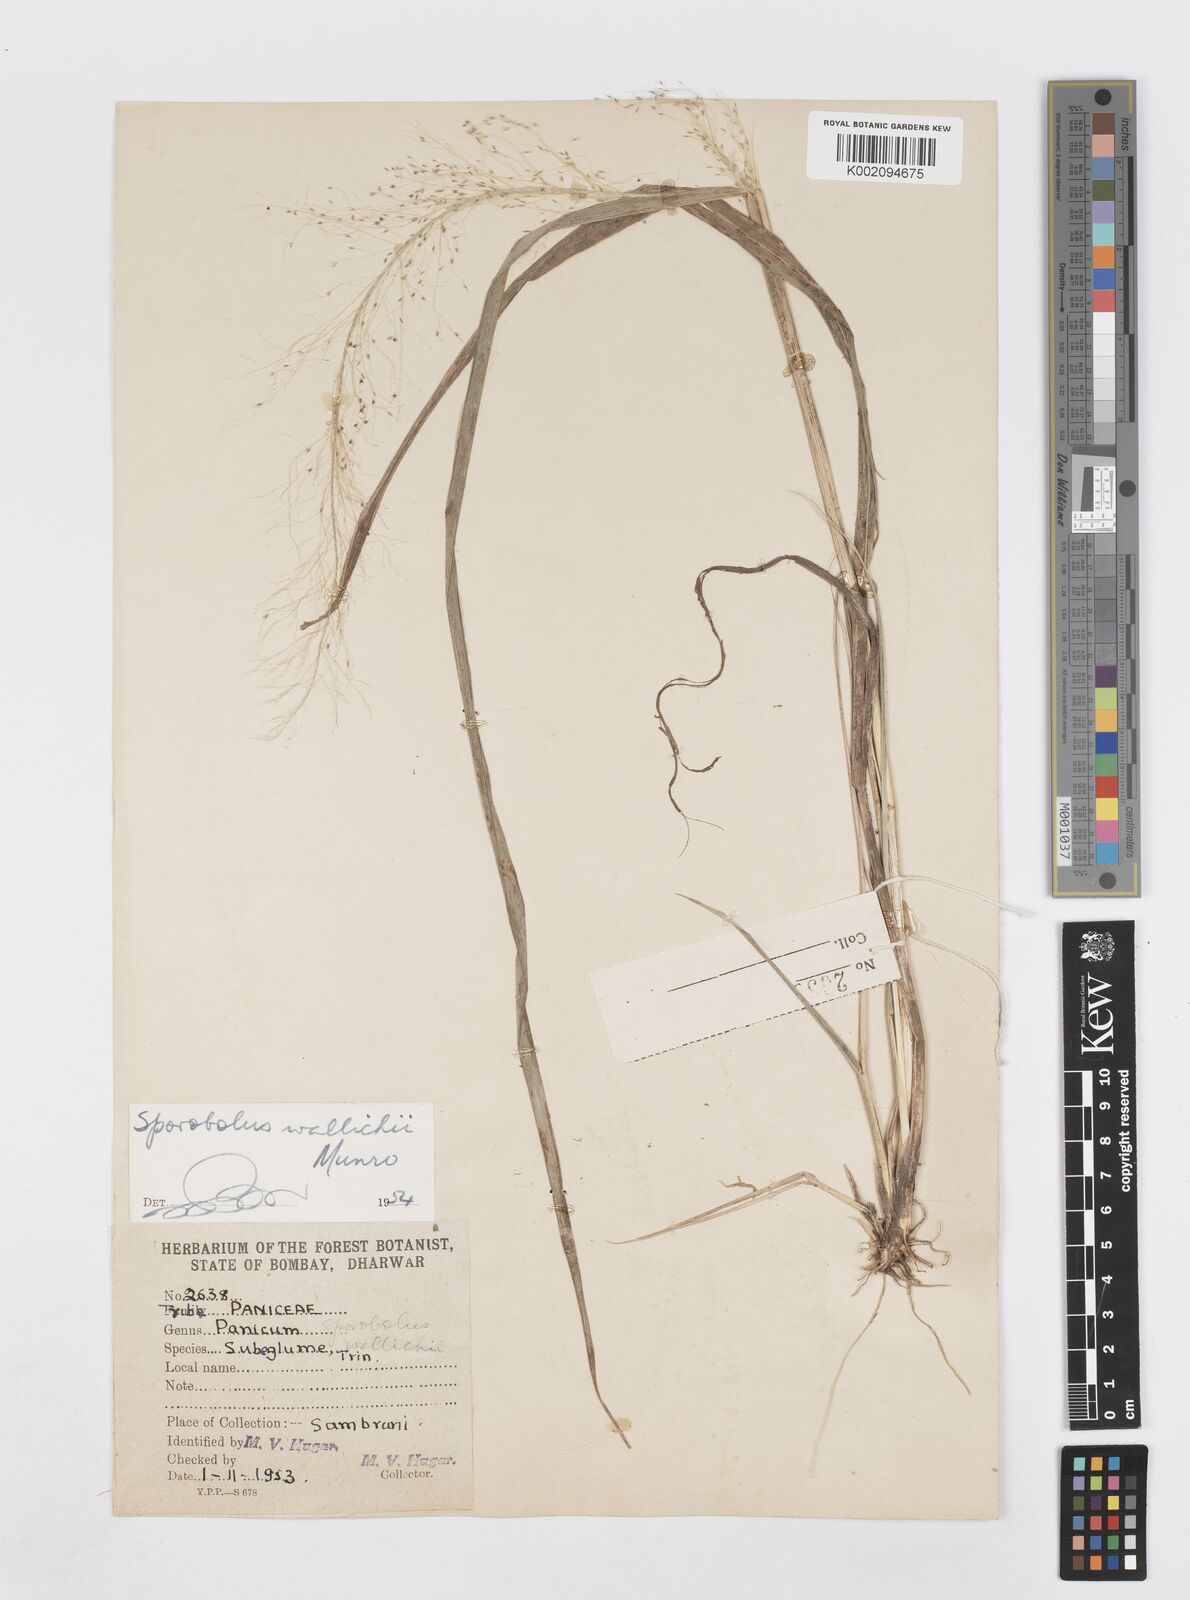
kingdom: Plantae
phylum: Tracheophyta
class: Liliopsida
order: Poales
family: Poaceae
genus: Sporobolus
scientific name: Sporobolus wallichii
